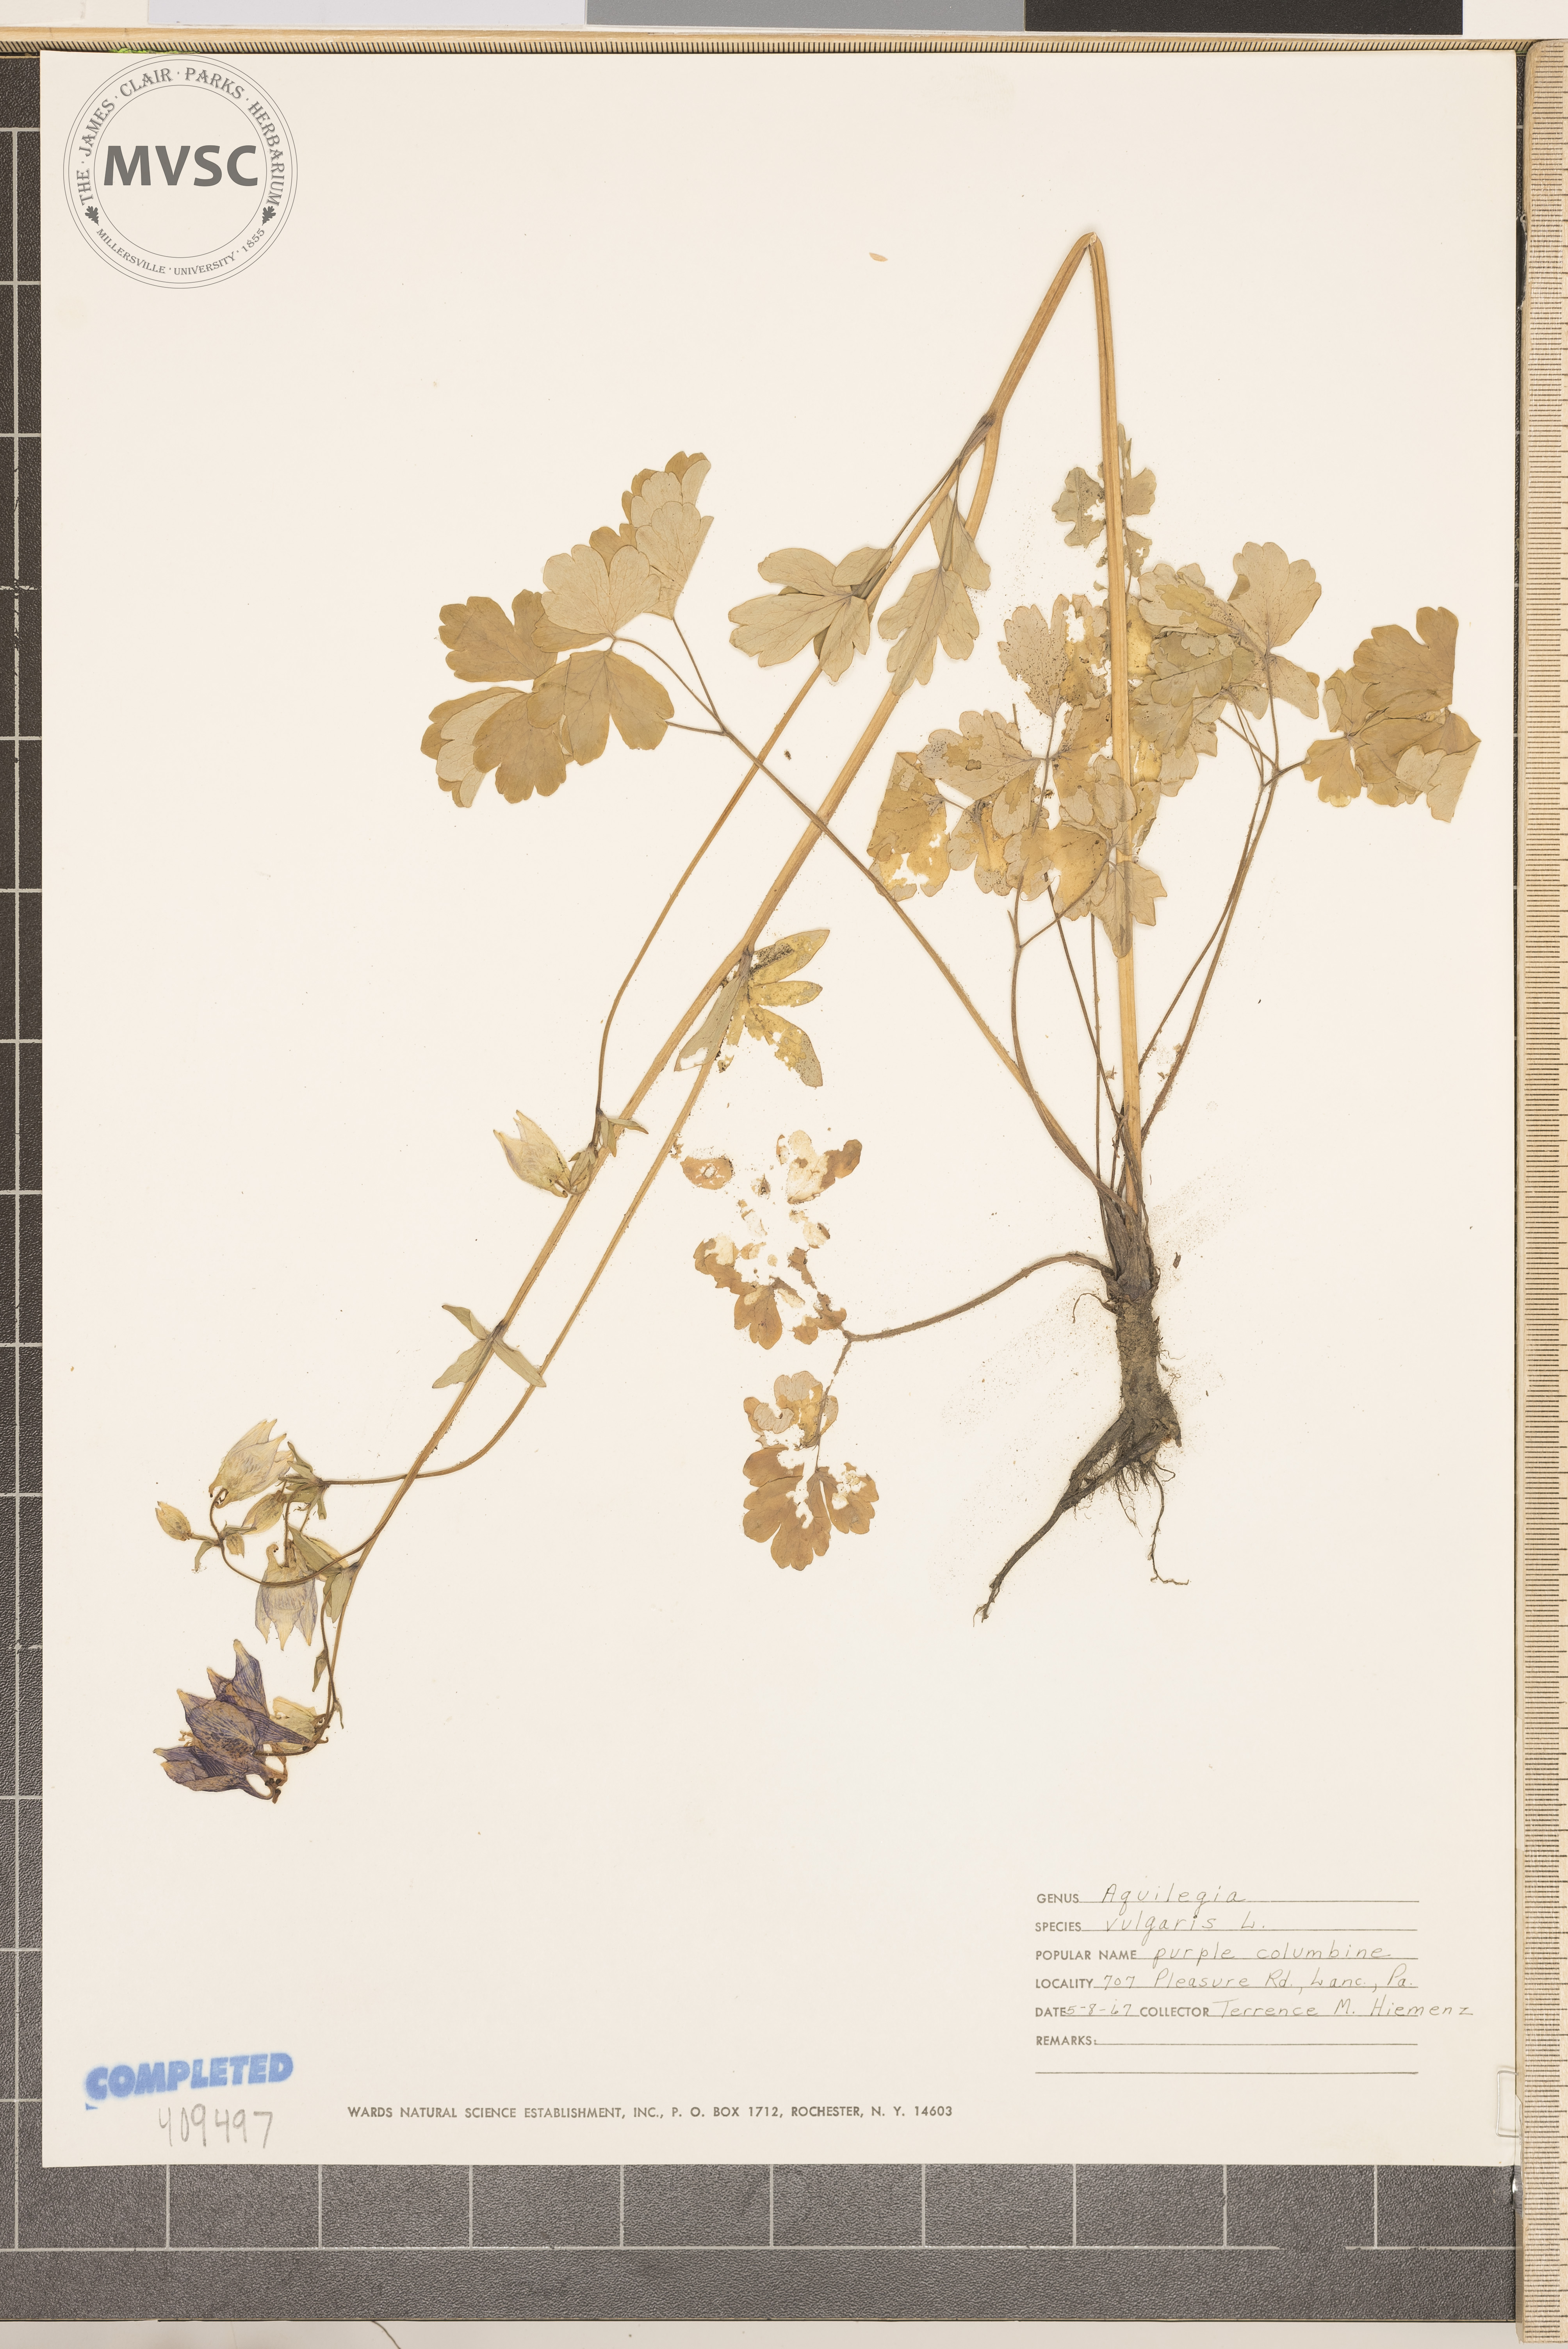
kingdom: Plantae
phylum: Tracheophyta
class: Magnoliopsida
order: Ranunculales
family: Ranunculaceae
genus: Aquilegia
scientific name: Aquilegia vulgaris
